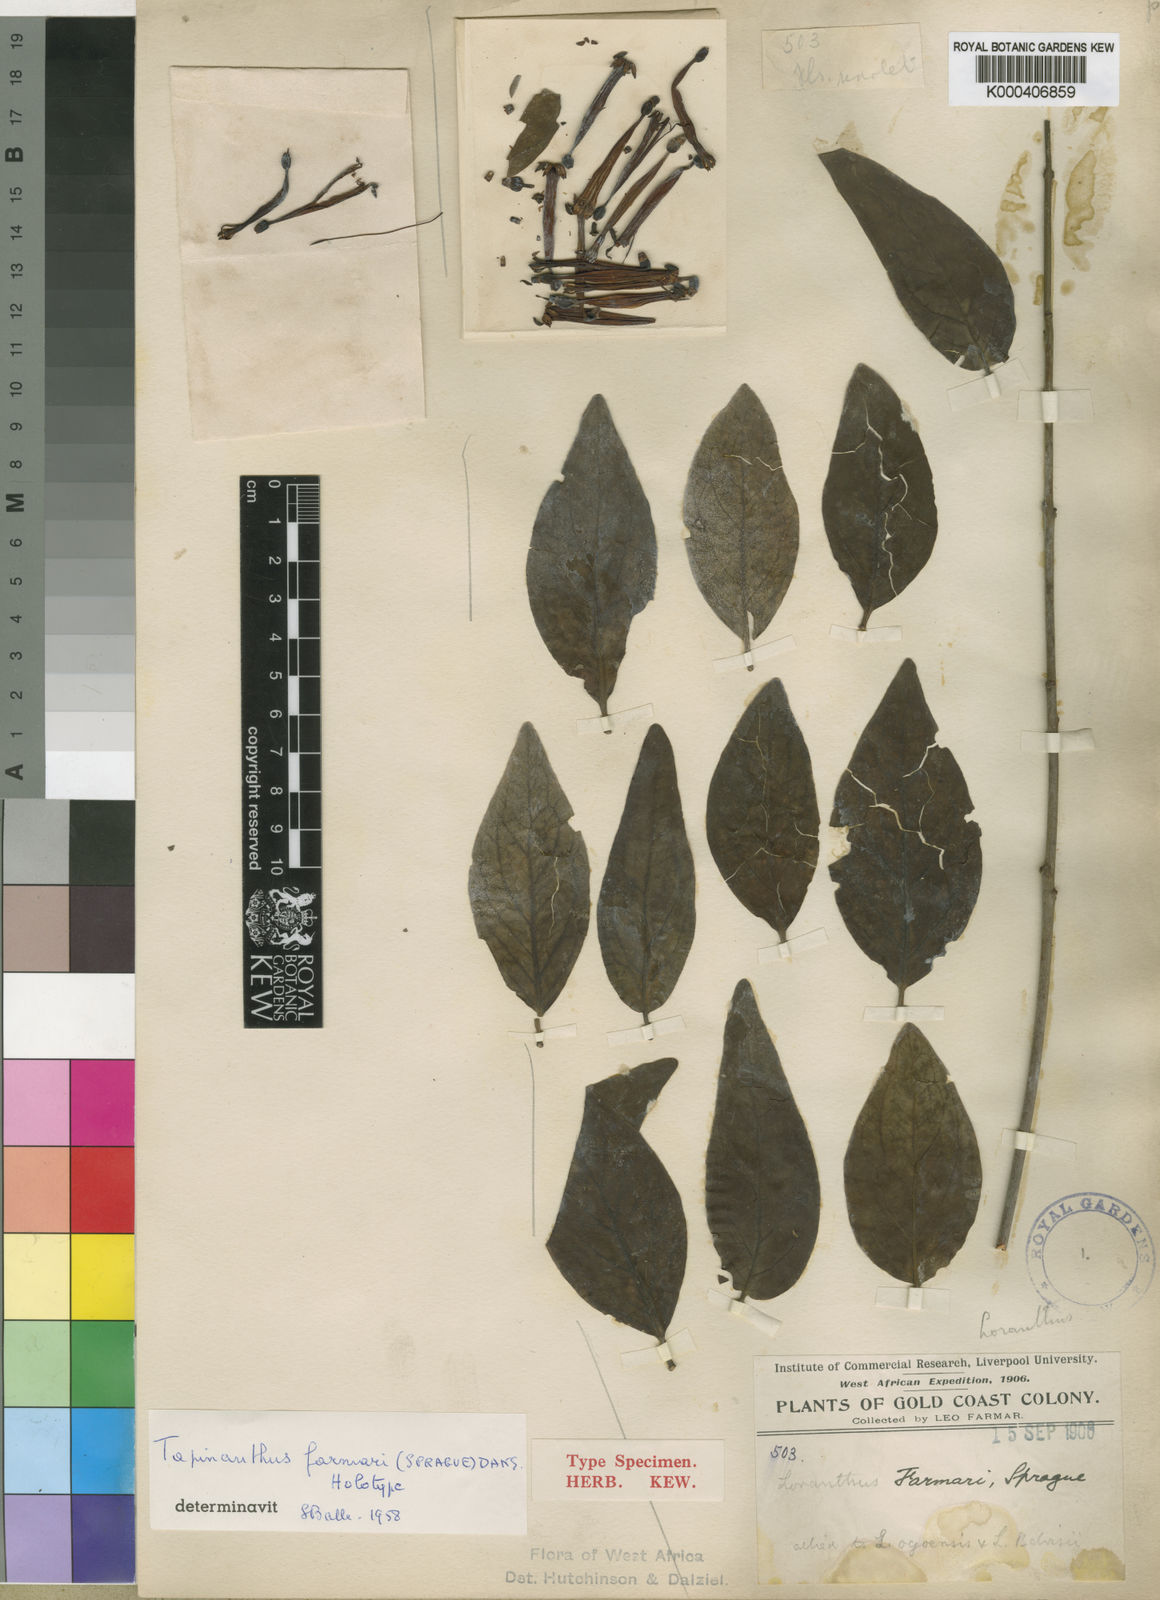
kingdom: Plantae
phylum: Tracheophyta
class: Magnoliopsida
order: Santalales
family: Loranthaceae
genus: Tapinanthus
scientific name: Tapinanthus farmari
